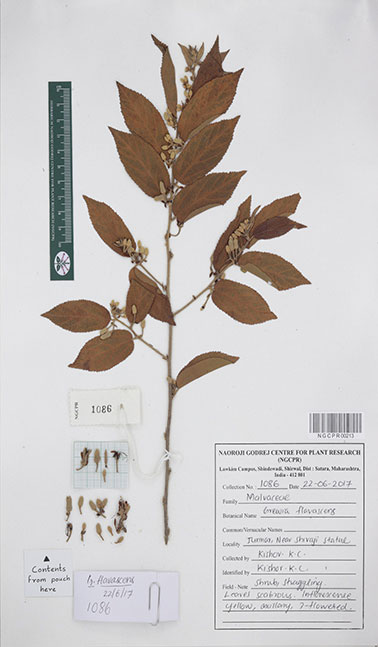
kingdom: Plantae
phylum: Tracheophyta
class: Magnoliopsida
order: Malvales
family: Malvaceae
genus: Grewia
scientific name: Grewia flavescens
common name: Sandpaper raisin
